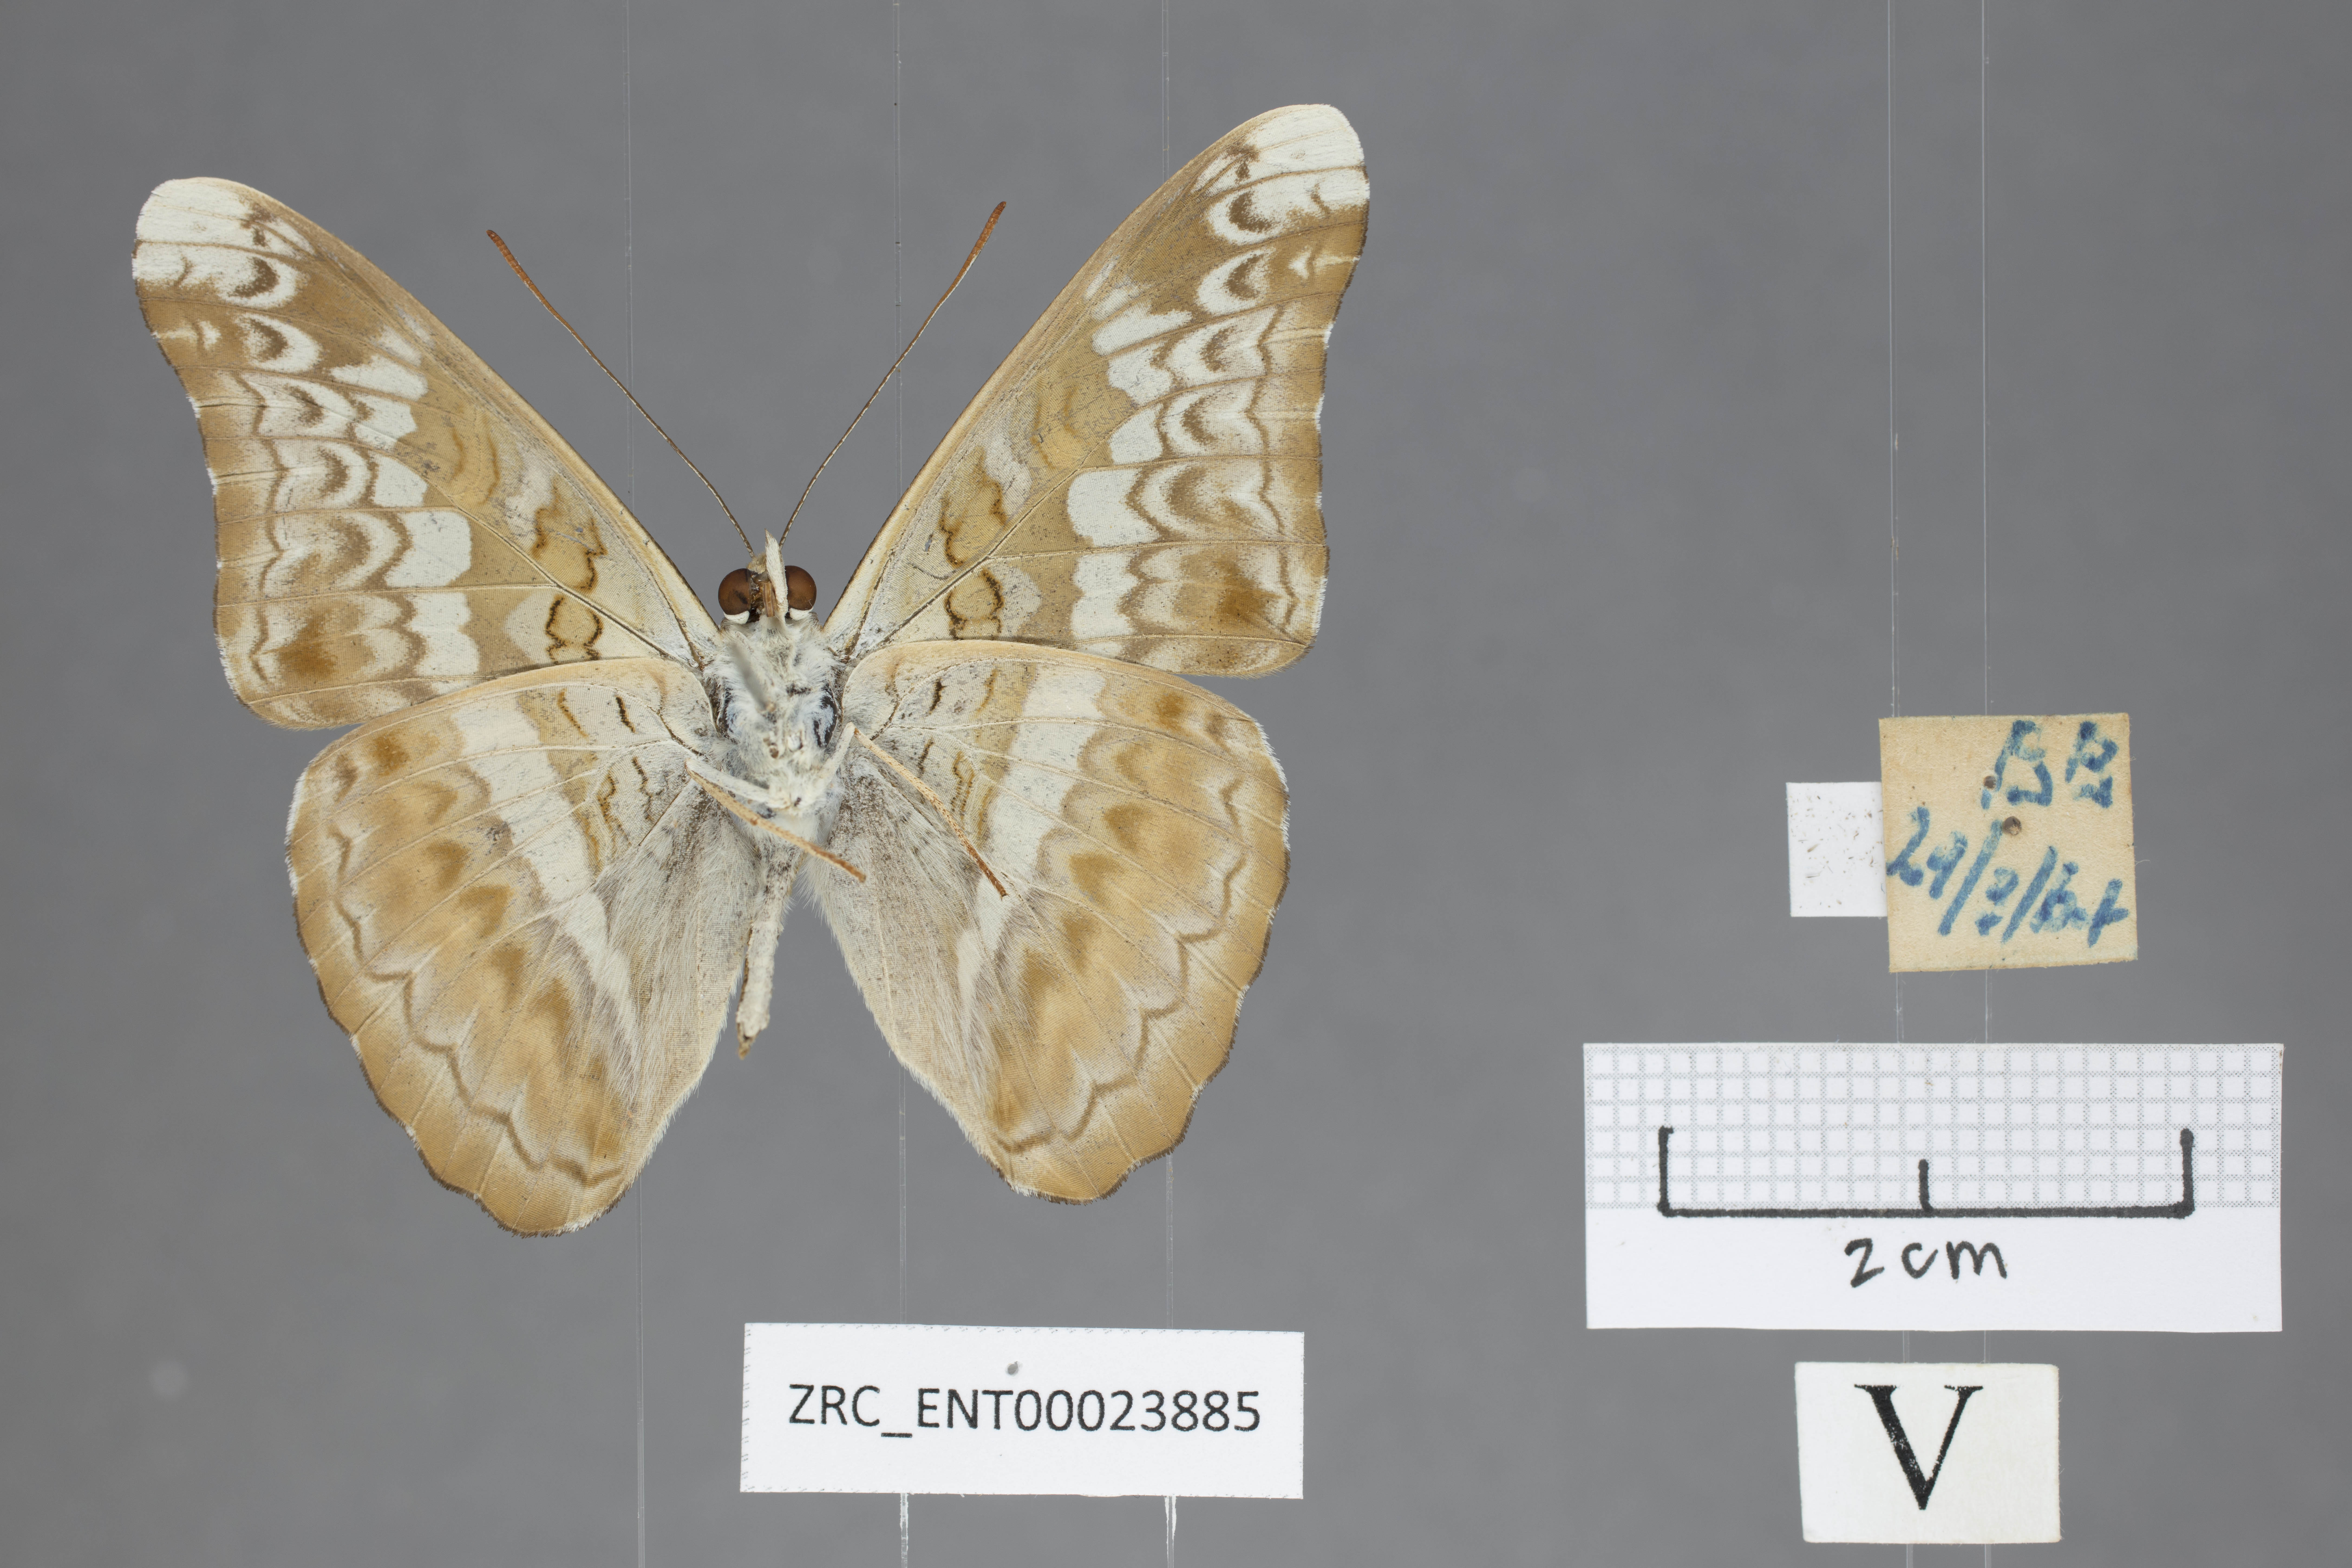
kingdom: Animalia
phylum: Arthropoda
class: Insecta
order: Lepidoptera
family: Nymphalidae
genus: Lebadea
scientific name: Lebadea martha
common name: Knight
